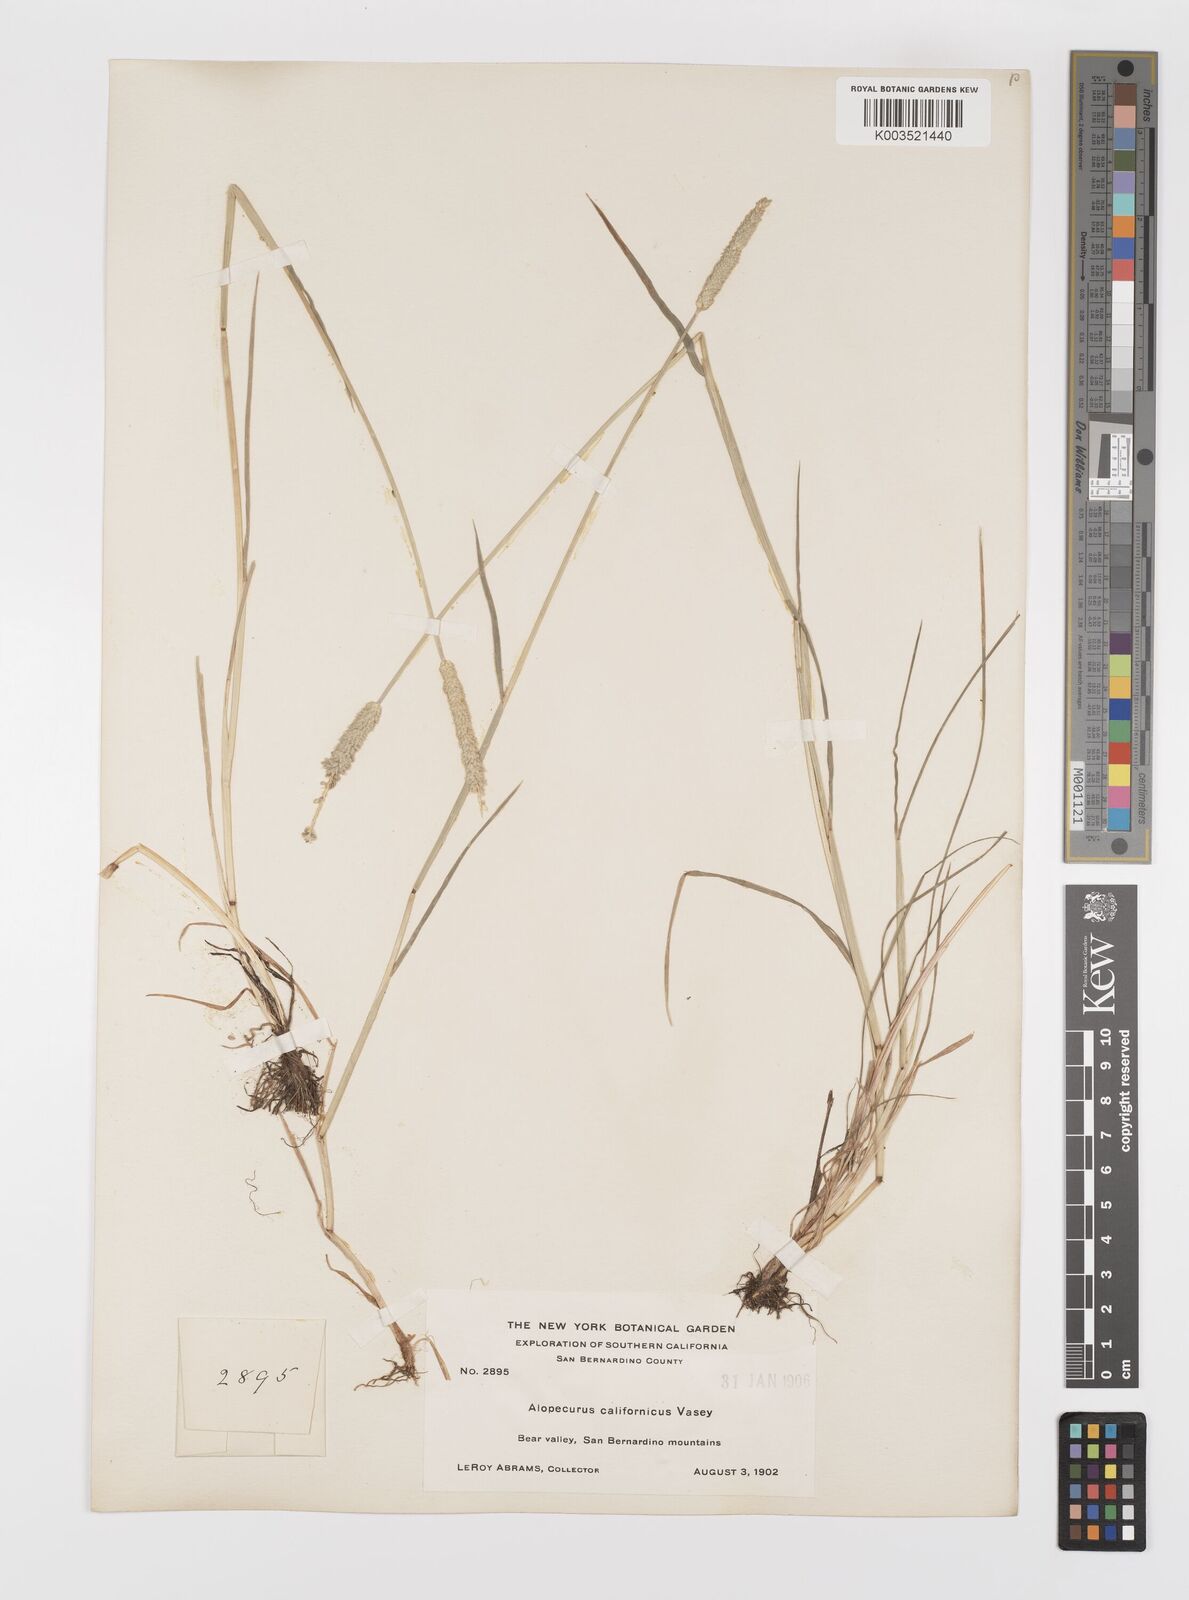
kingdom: Plantae
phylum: Tracheophyta
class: Liliopsida
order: Poales
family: Poaceae
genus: Alopecurus
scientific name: Alopecurus saccatus
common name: Pacific foxtail
